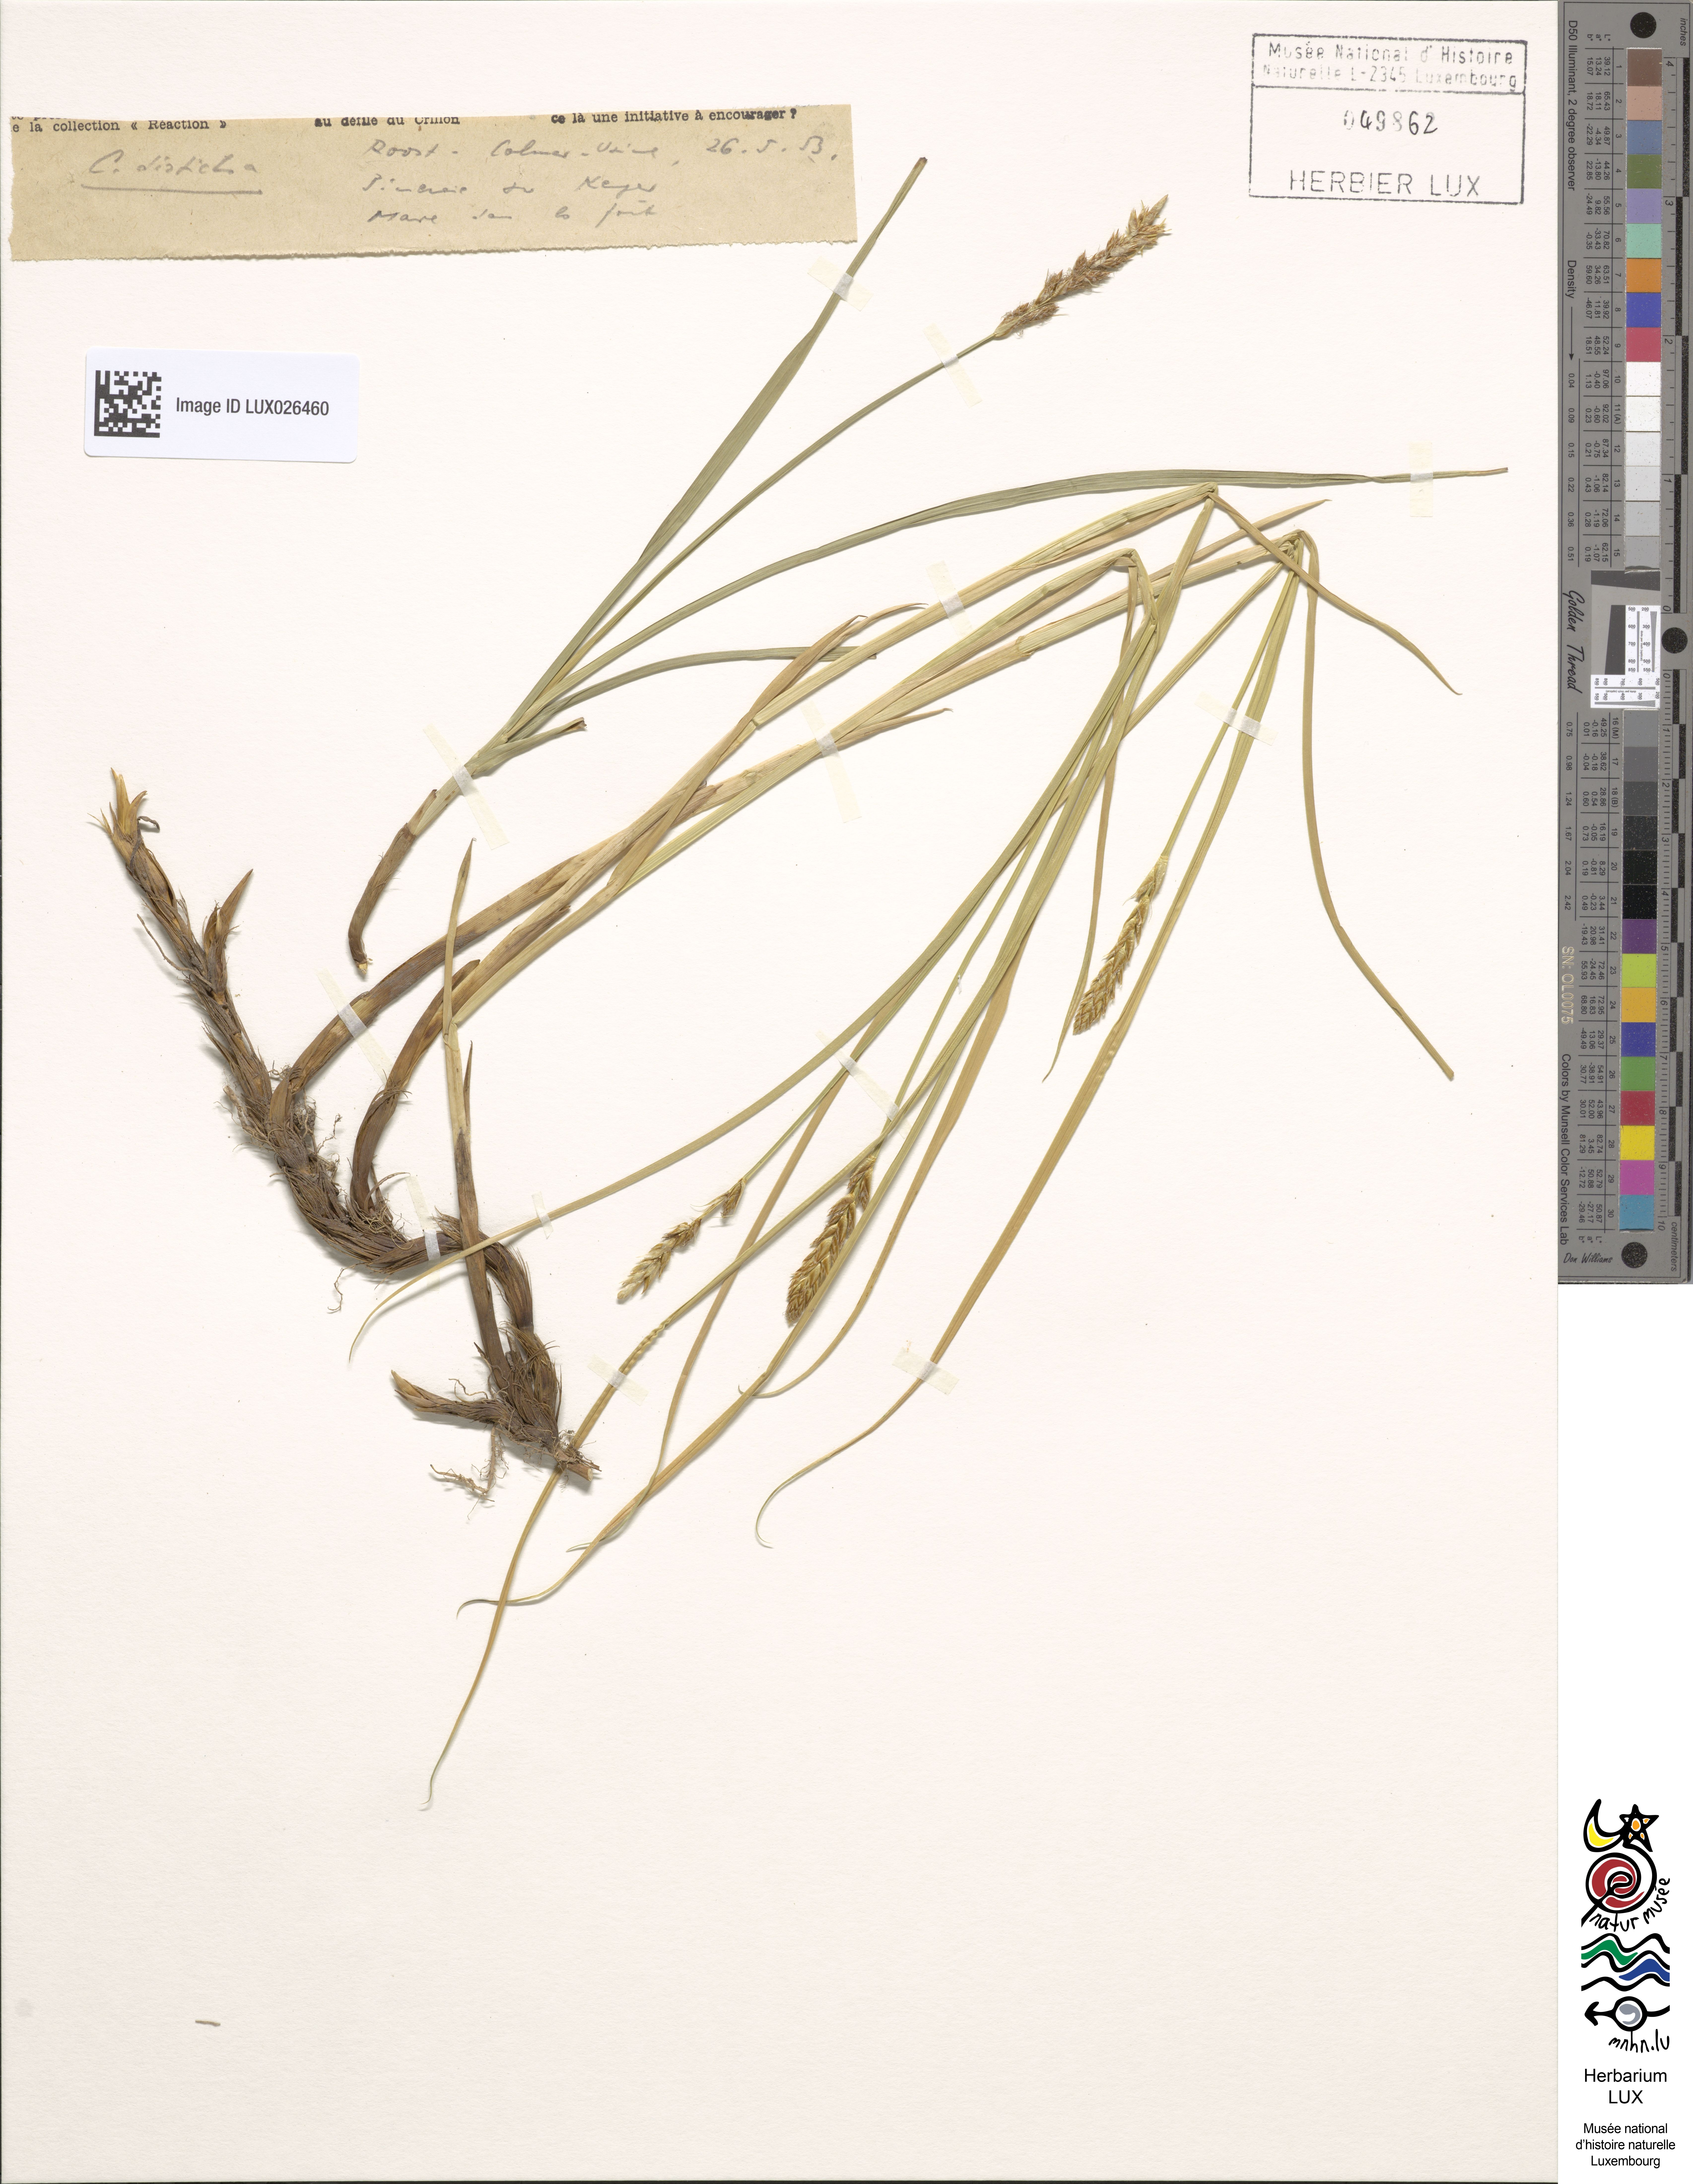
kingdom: Plantae
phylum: Tracheophyta
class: Liliopsida
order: Poales
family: Cyperaceae
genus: Carex
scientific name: Carex disticha
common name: Brown sedge
